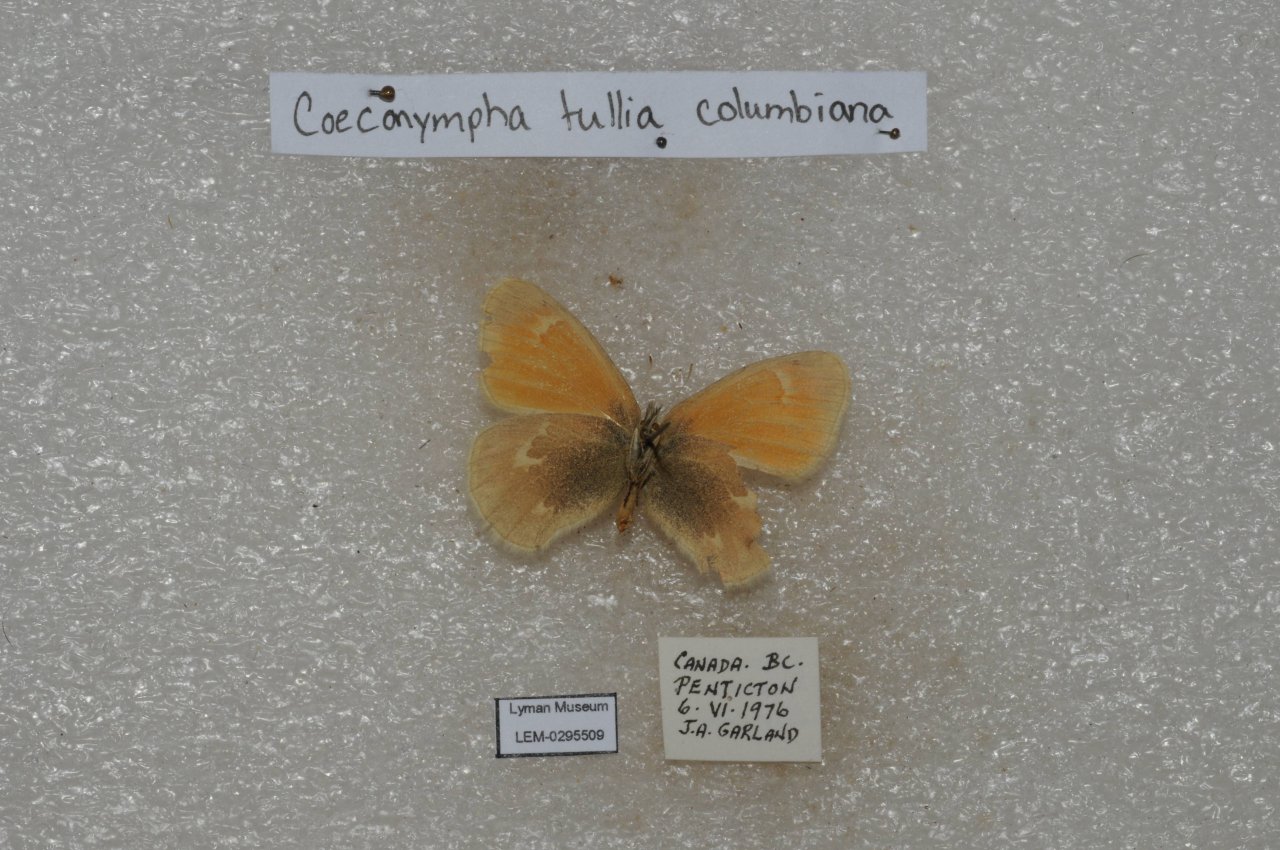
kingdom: Animalia
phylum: Arthropoda
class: Insecta
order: Lepidoptera
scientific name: Lepidoptera
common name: Butterflies
